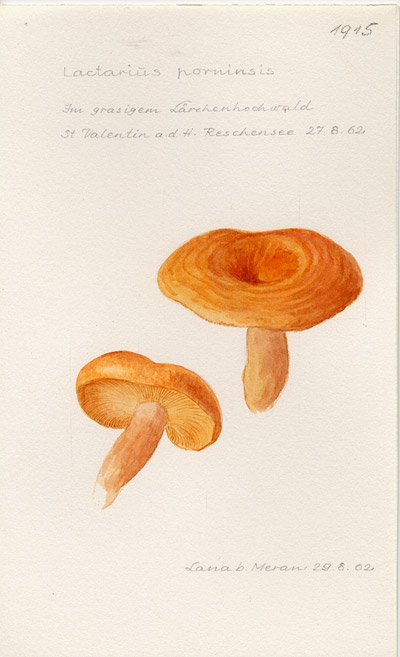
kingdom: Fungi
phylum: Basidiomycota
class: Agaricomycetes
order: Russulales
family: Russulaceae
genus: Lactarius
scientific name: Lactarius porninsis
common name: Larch milkcap
